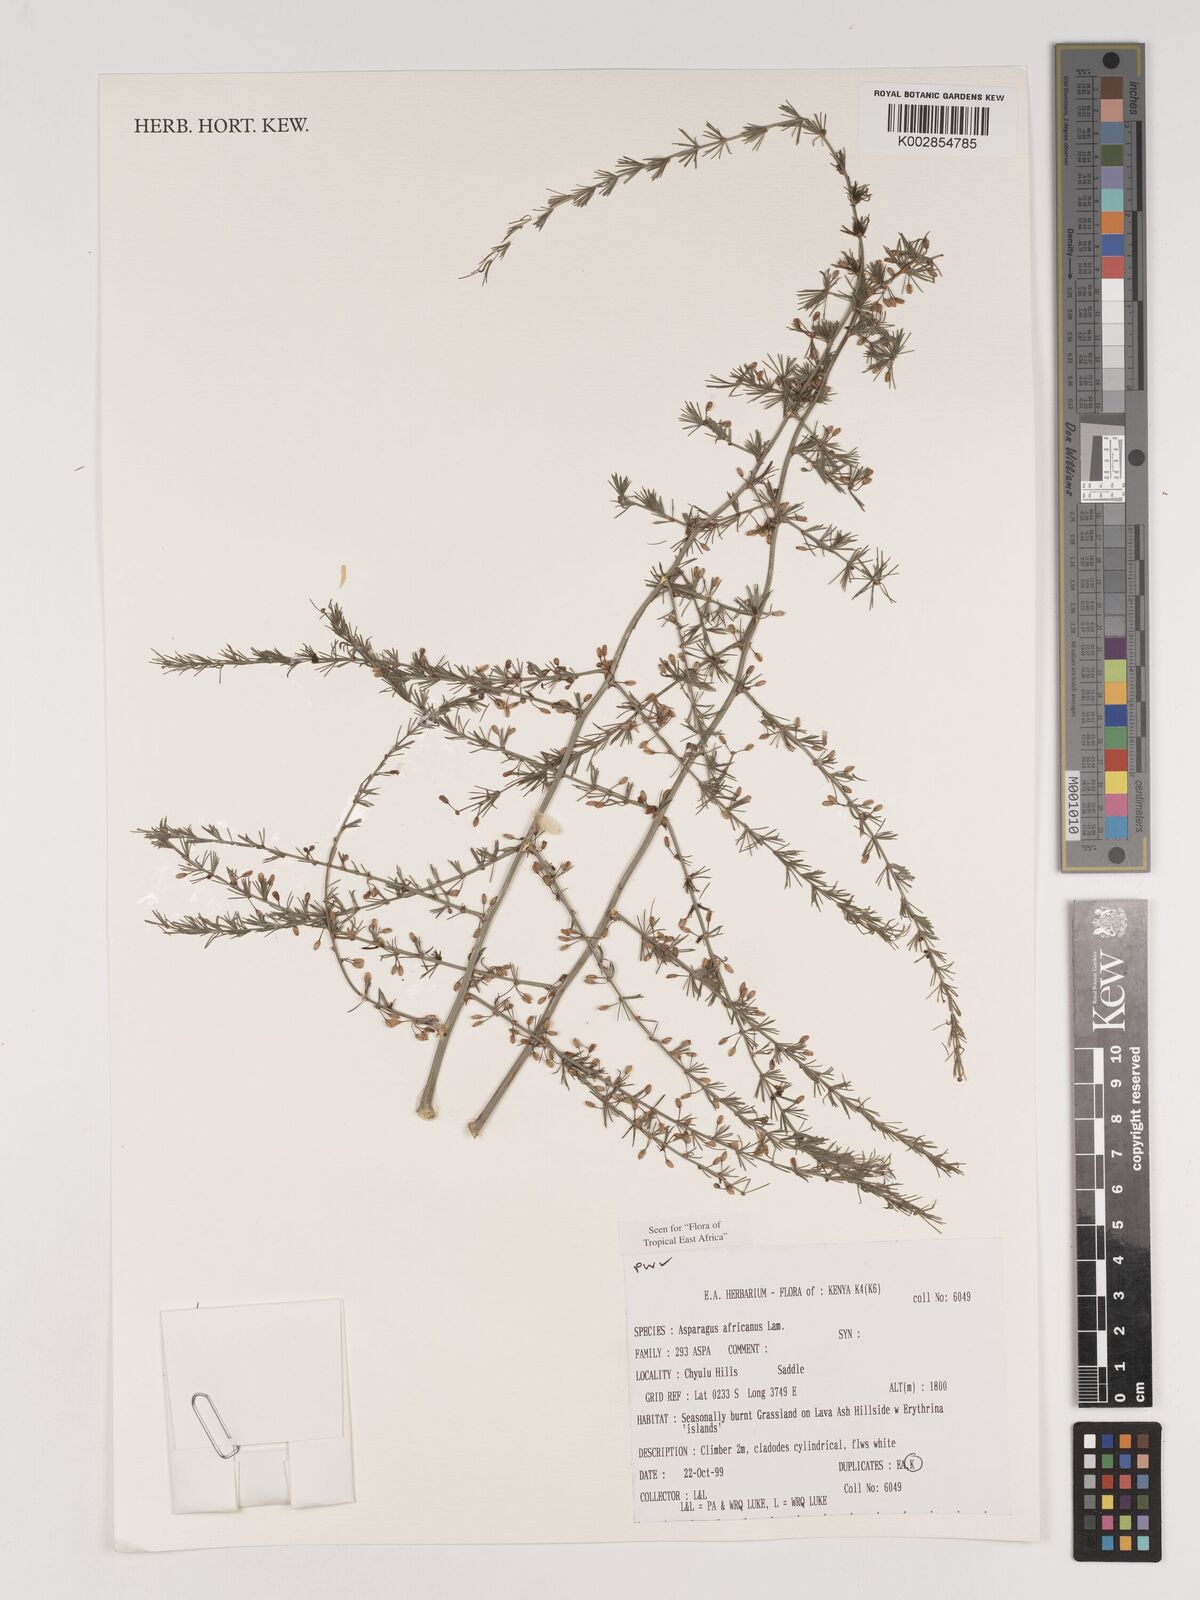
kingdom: Plantae
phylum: Tracheophyta
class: Liliopsida
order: Asparagales
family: Asparagaceae
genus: Asparagus
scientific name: Asparagus africanus
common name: Asparagus-fern
